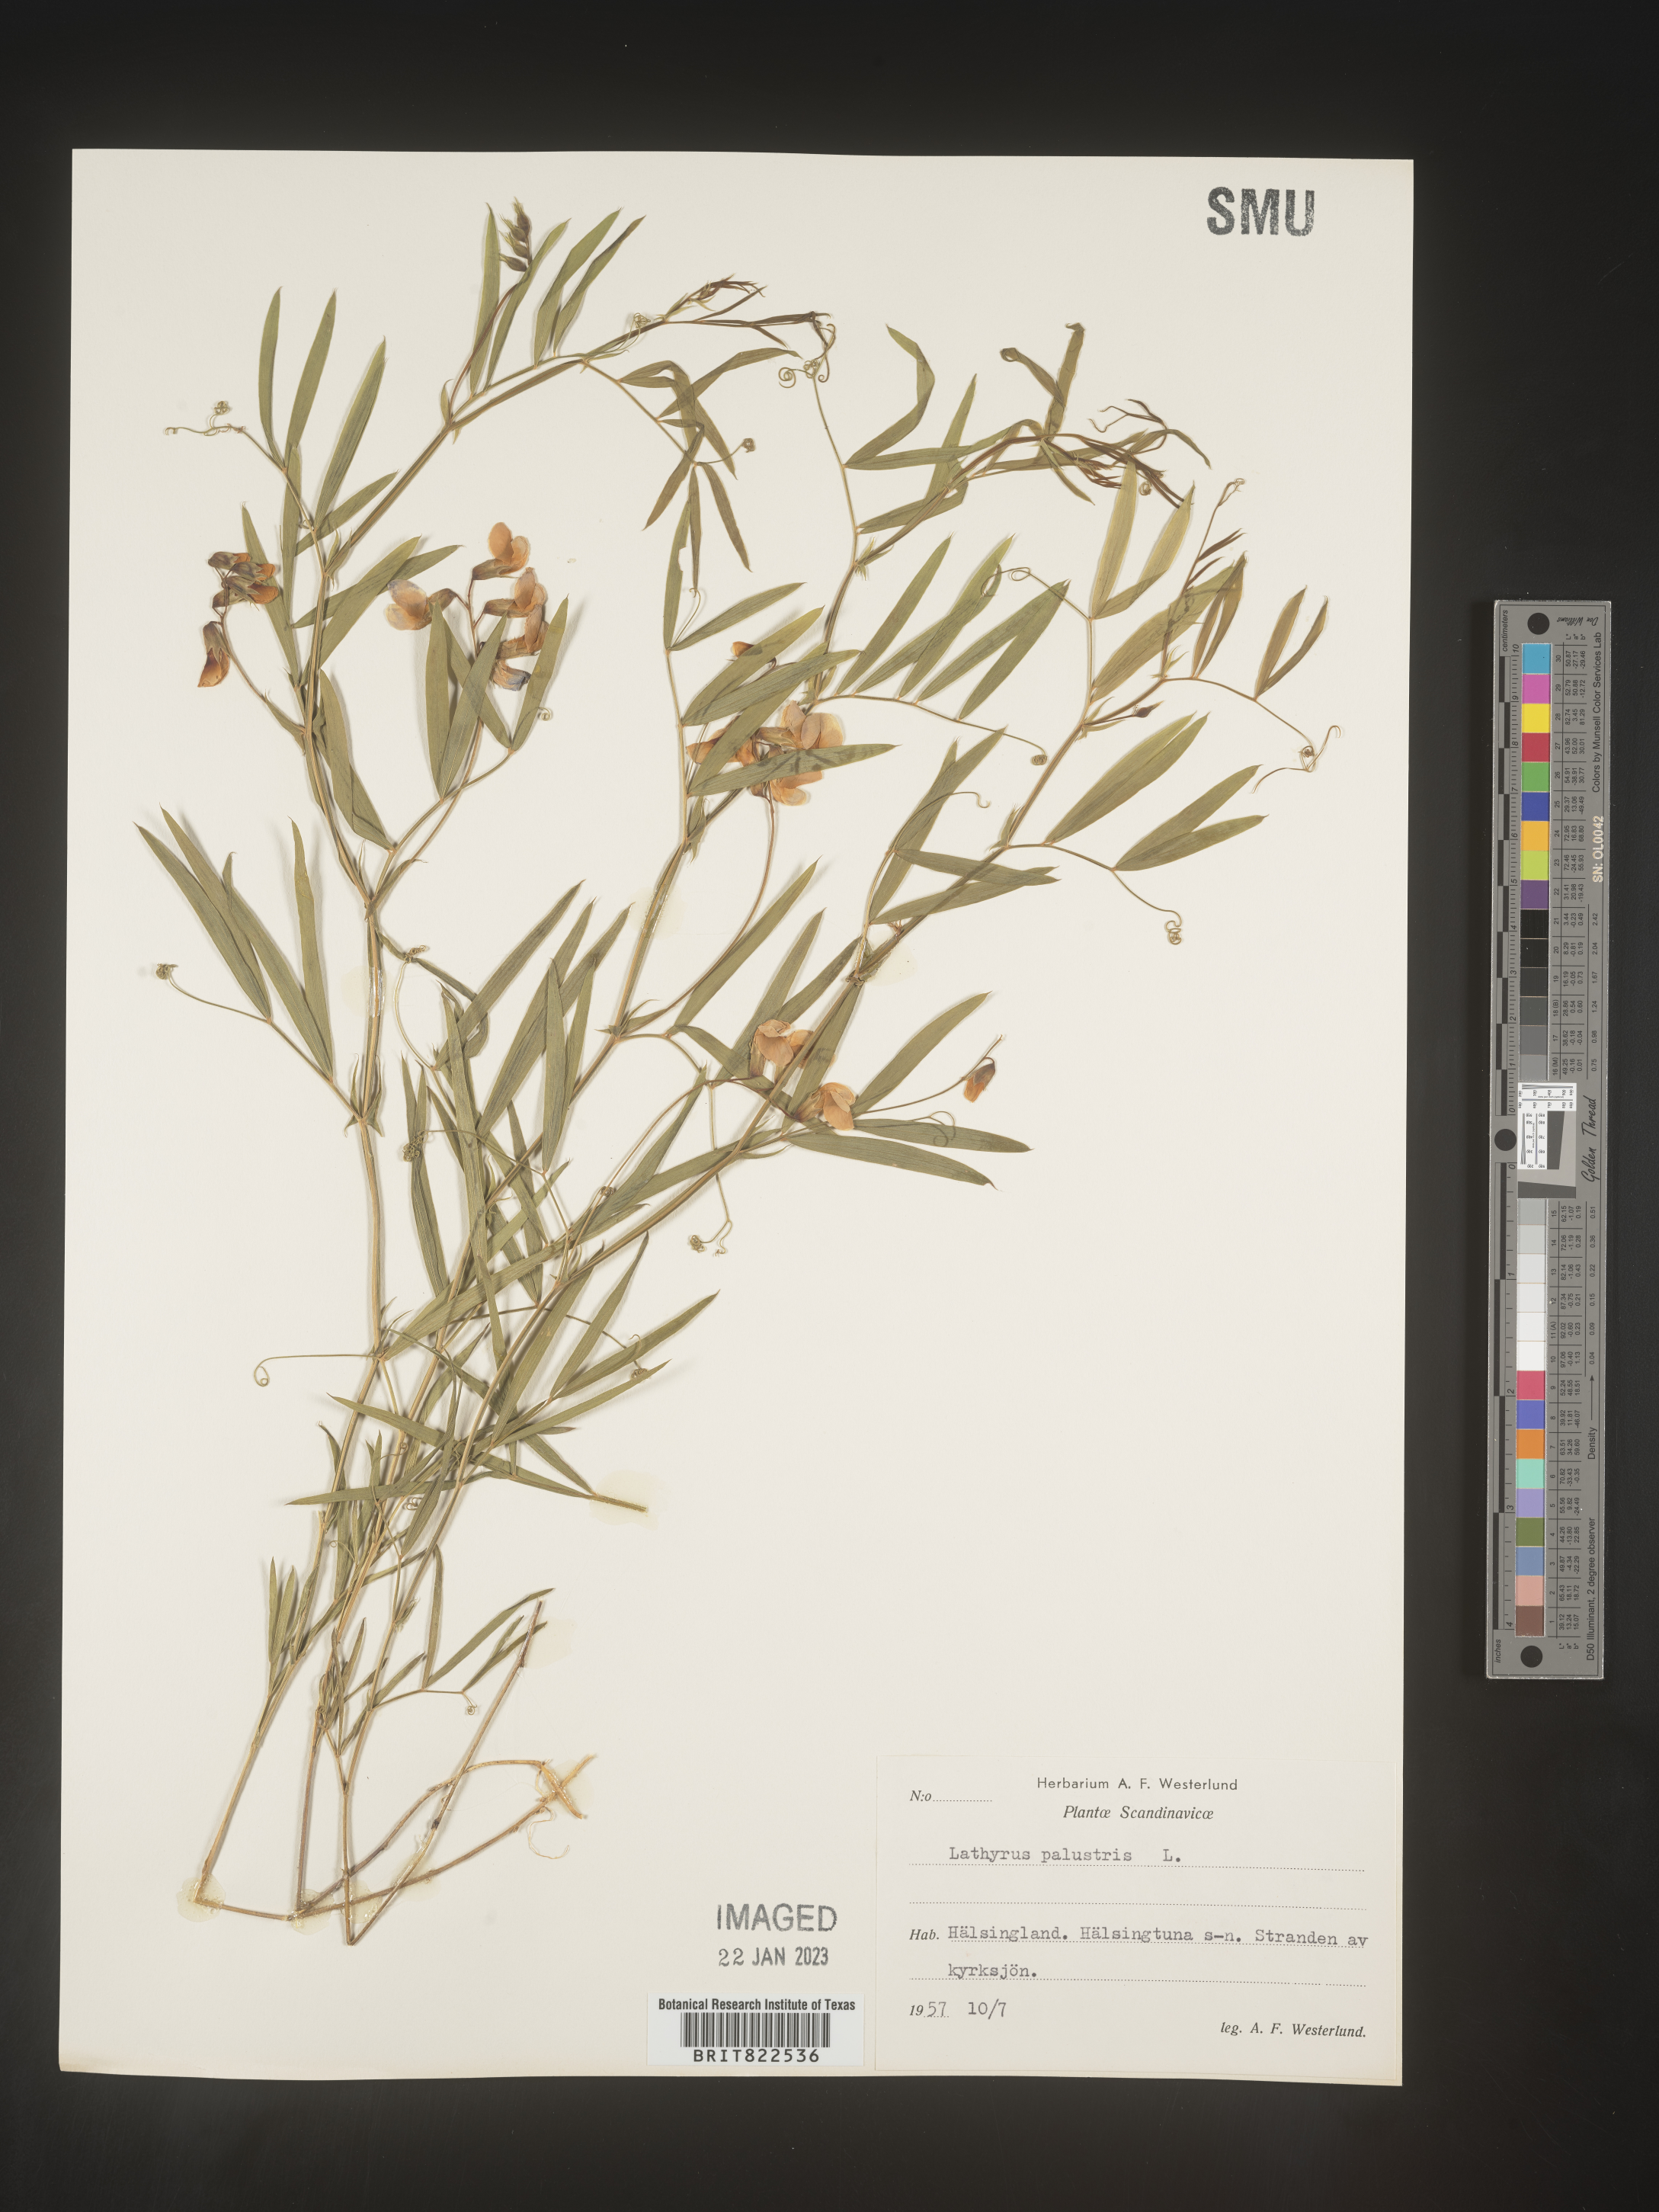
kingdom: Plantae
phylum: Tracheophyta
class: Magnoliopsida
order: Fabales
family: Fabaceae
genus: Lathyrus
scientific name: Lathyrus
